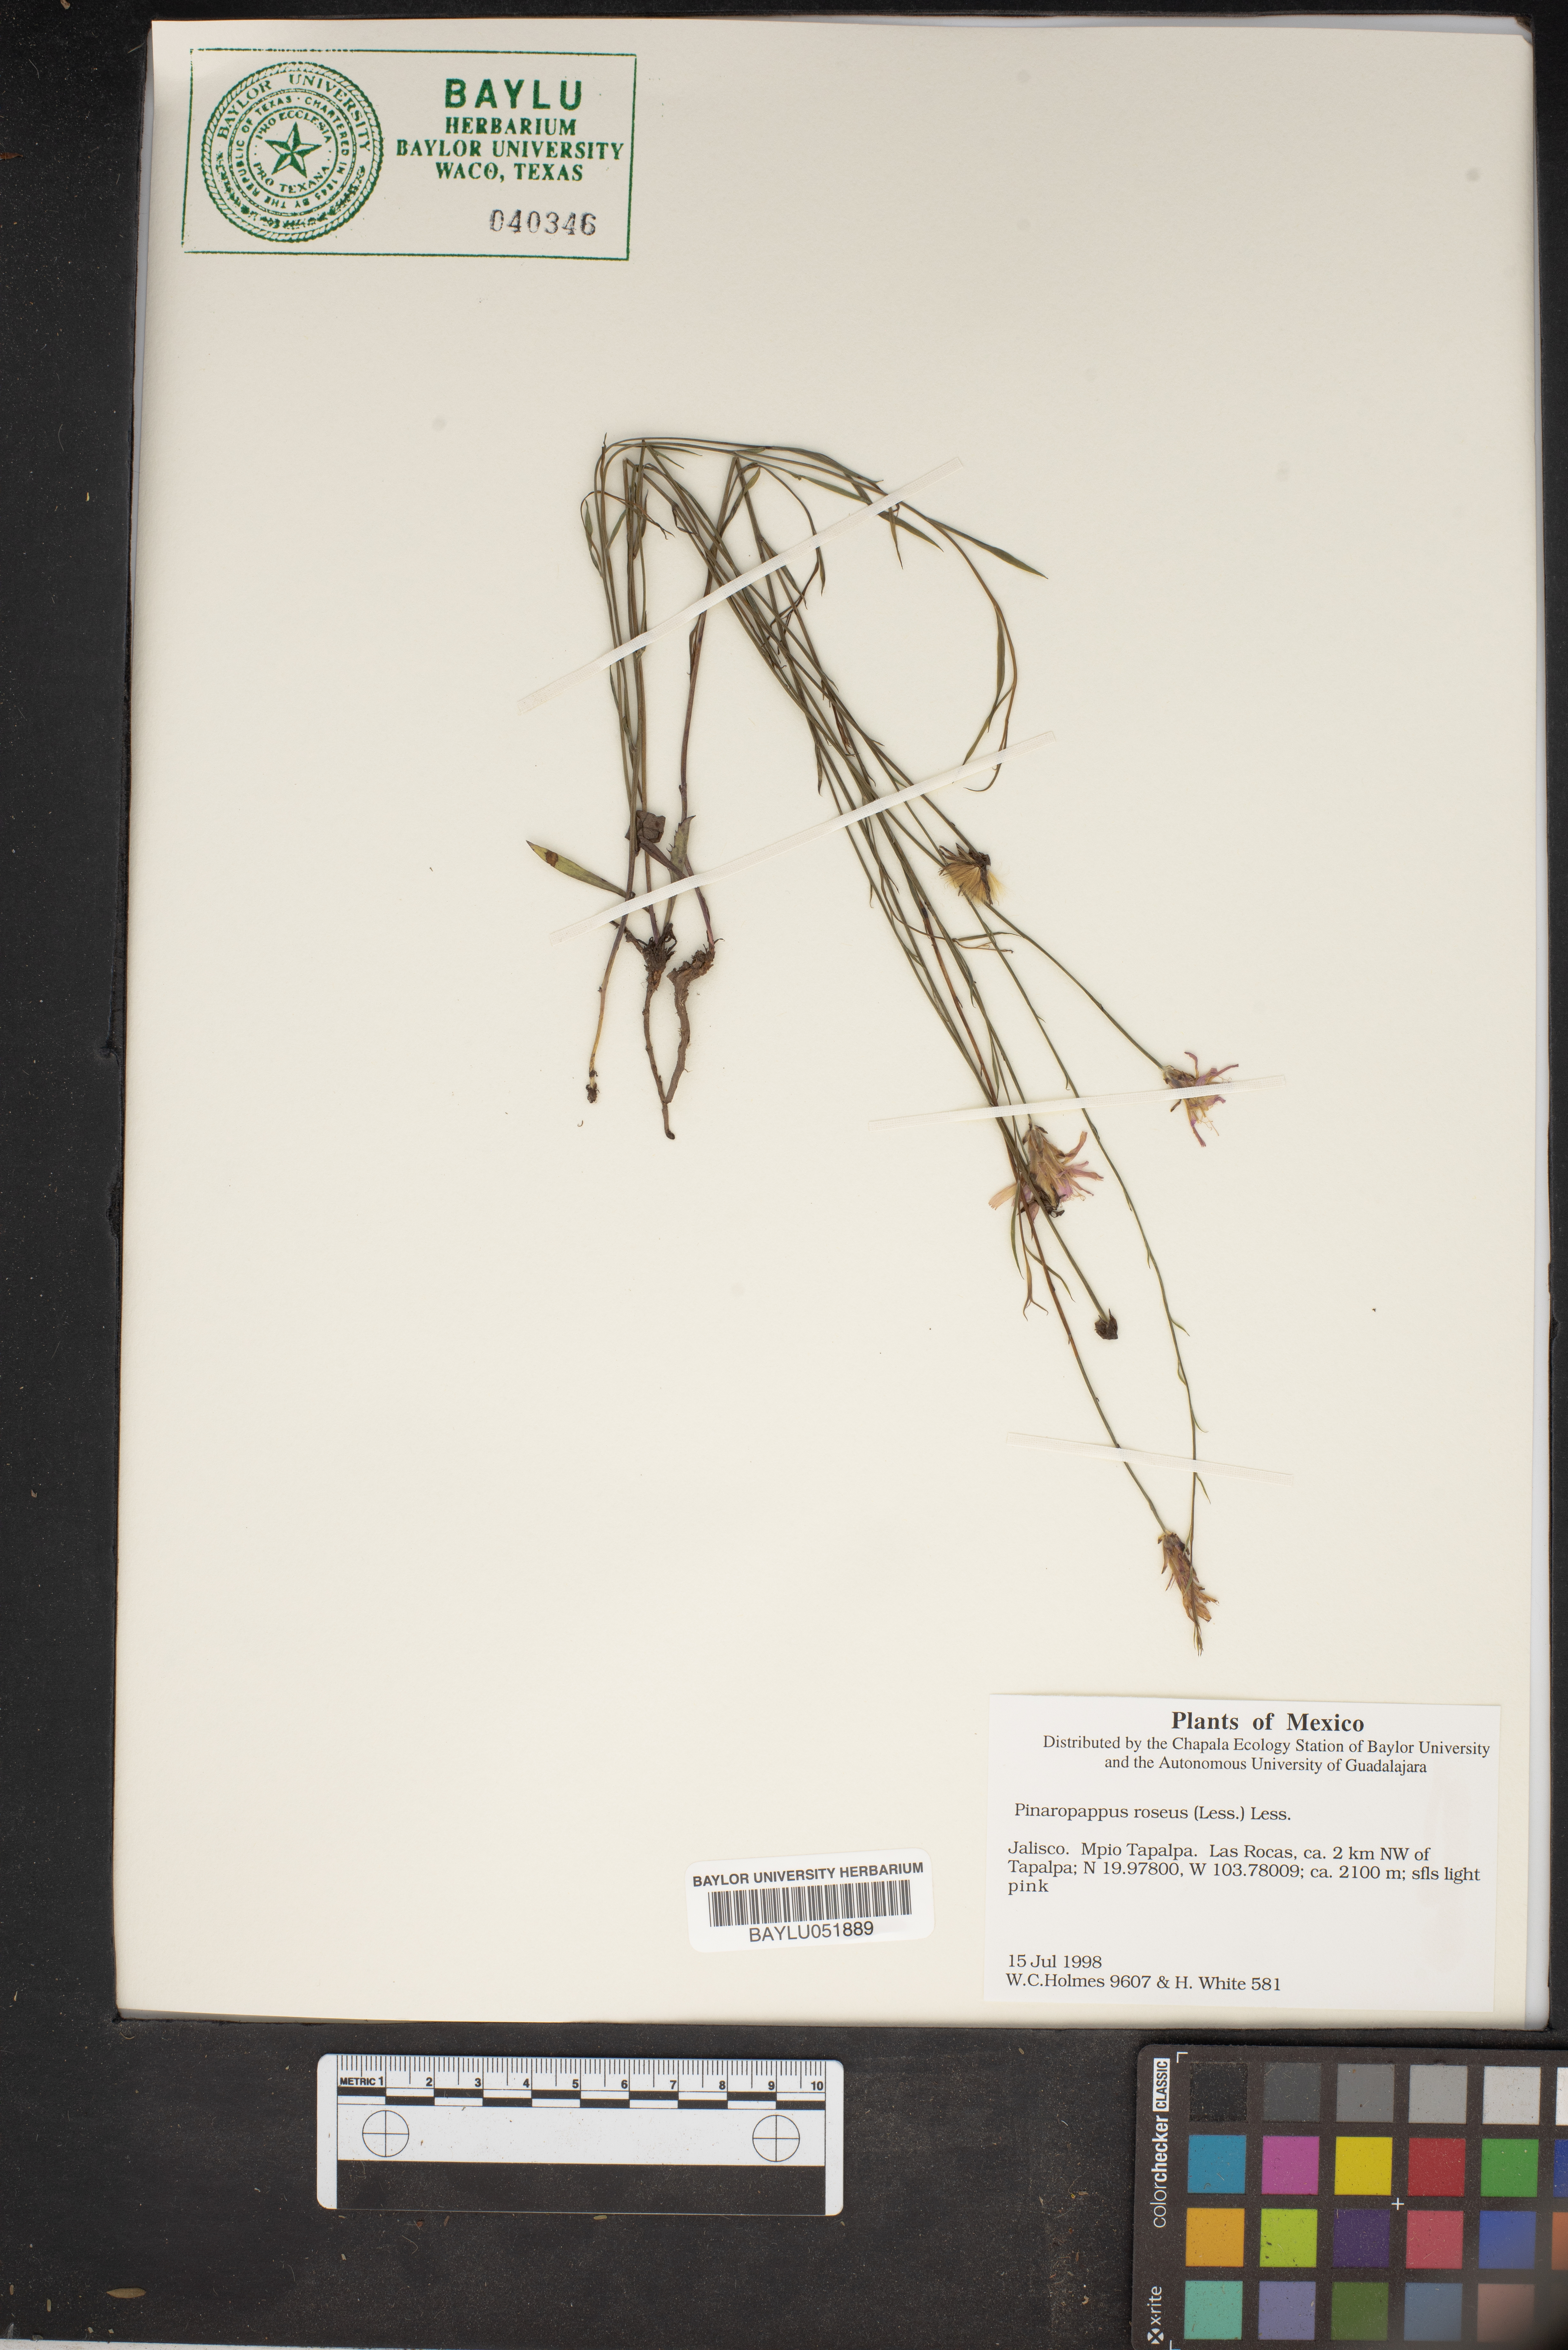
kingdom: Plantae
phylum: Tracheophyta
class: Magnoliopsida
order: Asterales
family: Asteraceae
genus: Pinaropappus
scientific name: Pinaropappus roseus
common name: Rock-lettuce
